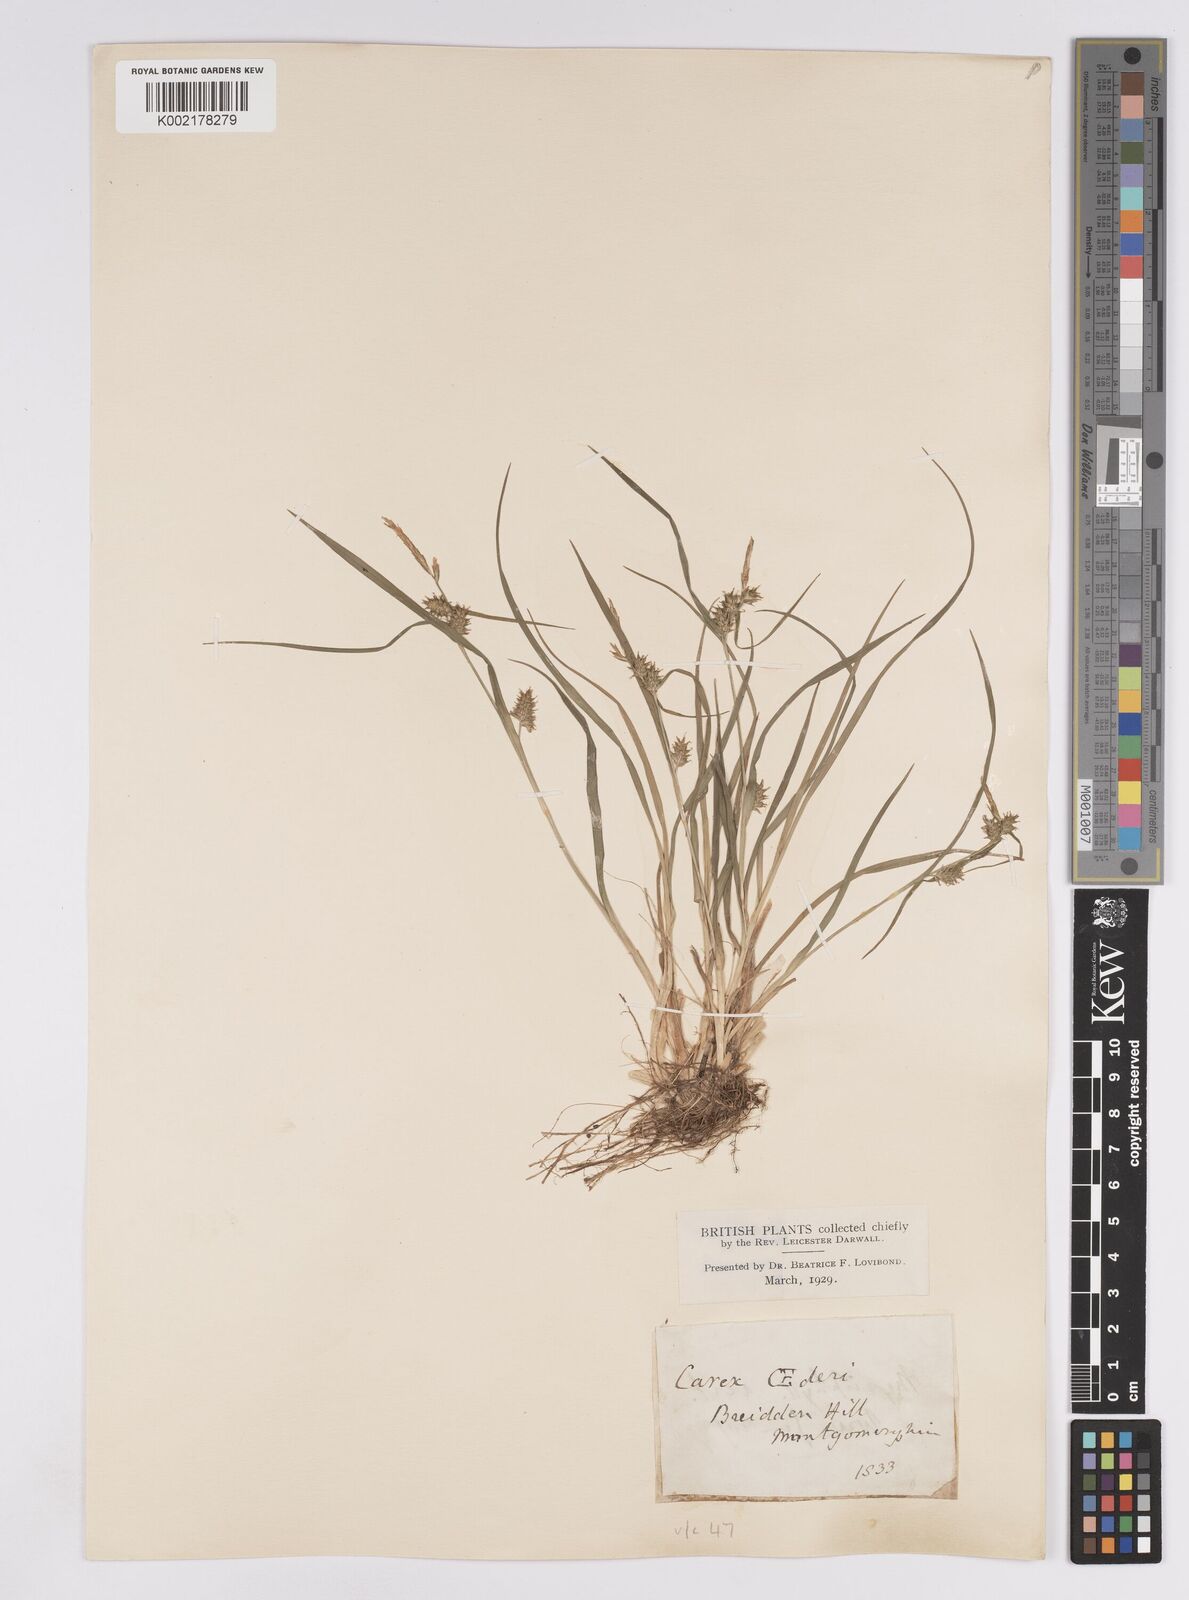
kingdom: Plantae
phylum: Tracheophyta
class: Liliopsida
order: Poales
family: Cyperaceae
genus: Carex
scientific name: Carex demissa
